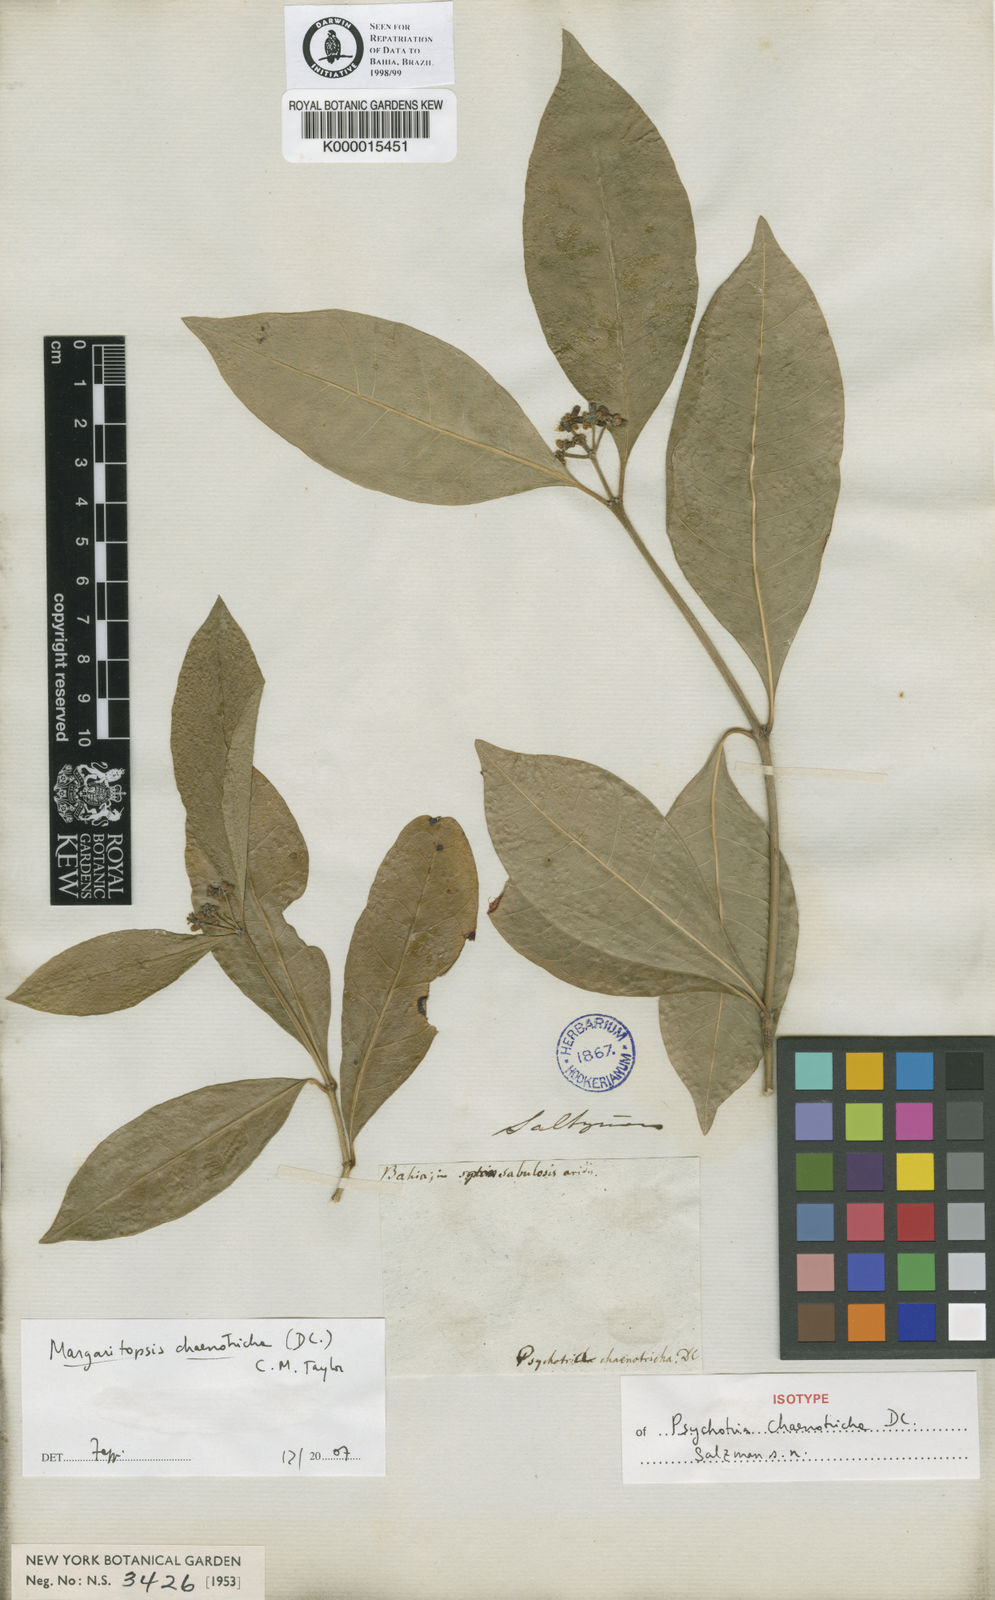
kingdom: Plantae
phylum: Tracheophyta
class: Magnoliopsida
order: Gentianales
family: Rubiaceae
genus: Eumachia
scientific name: Eumachia chaenotricha
